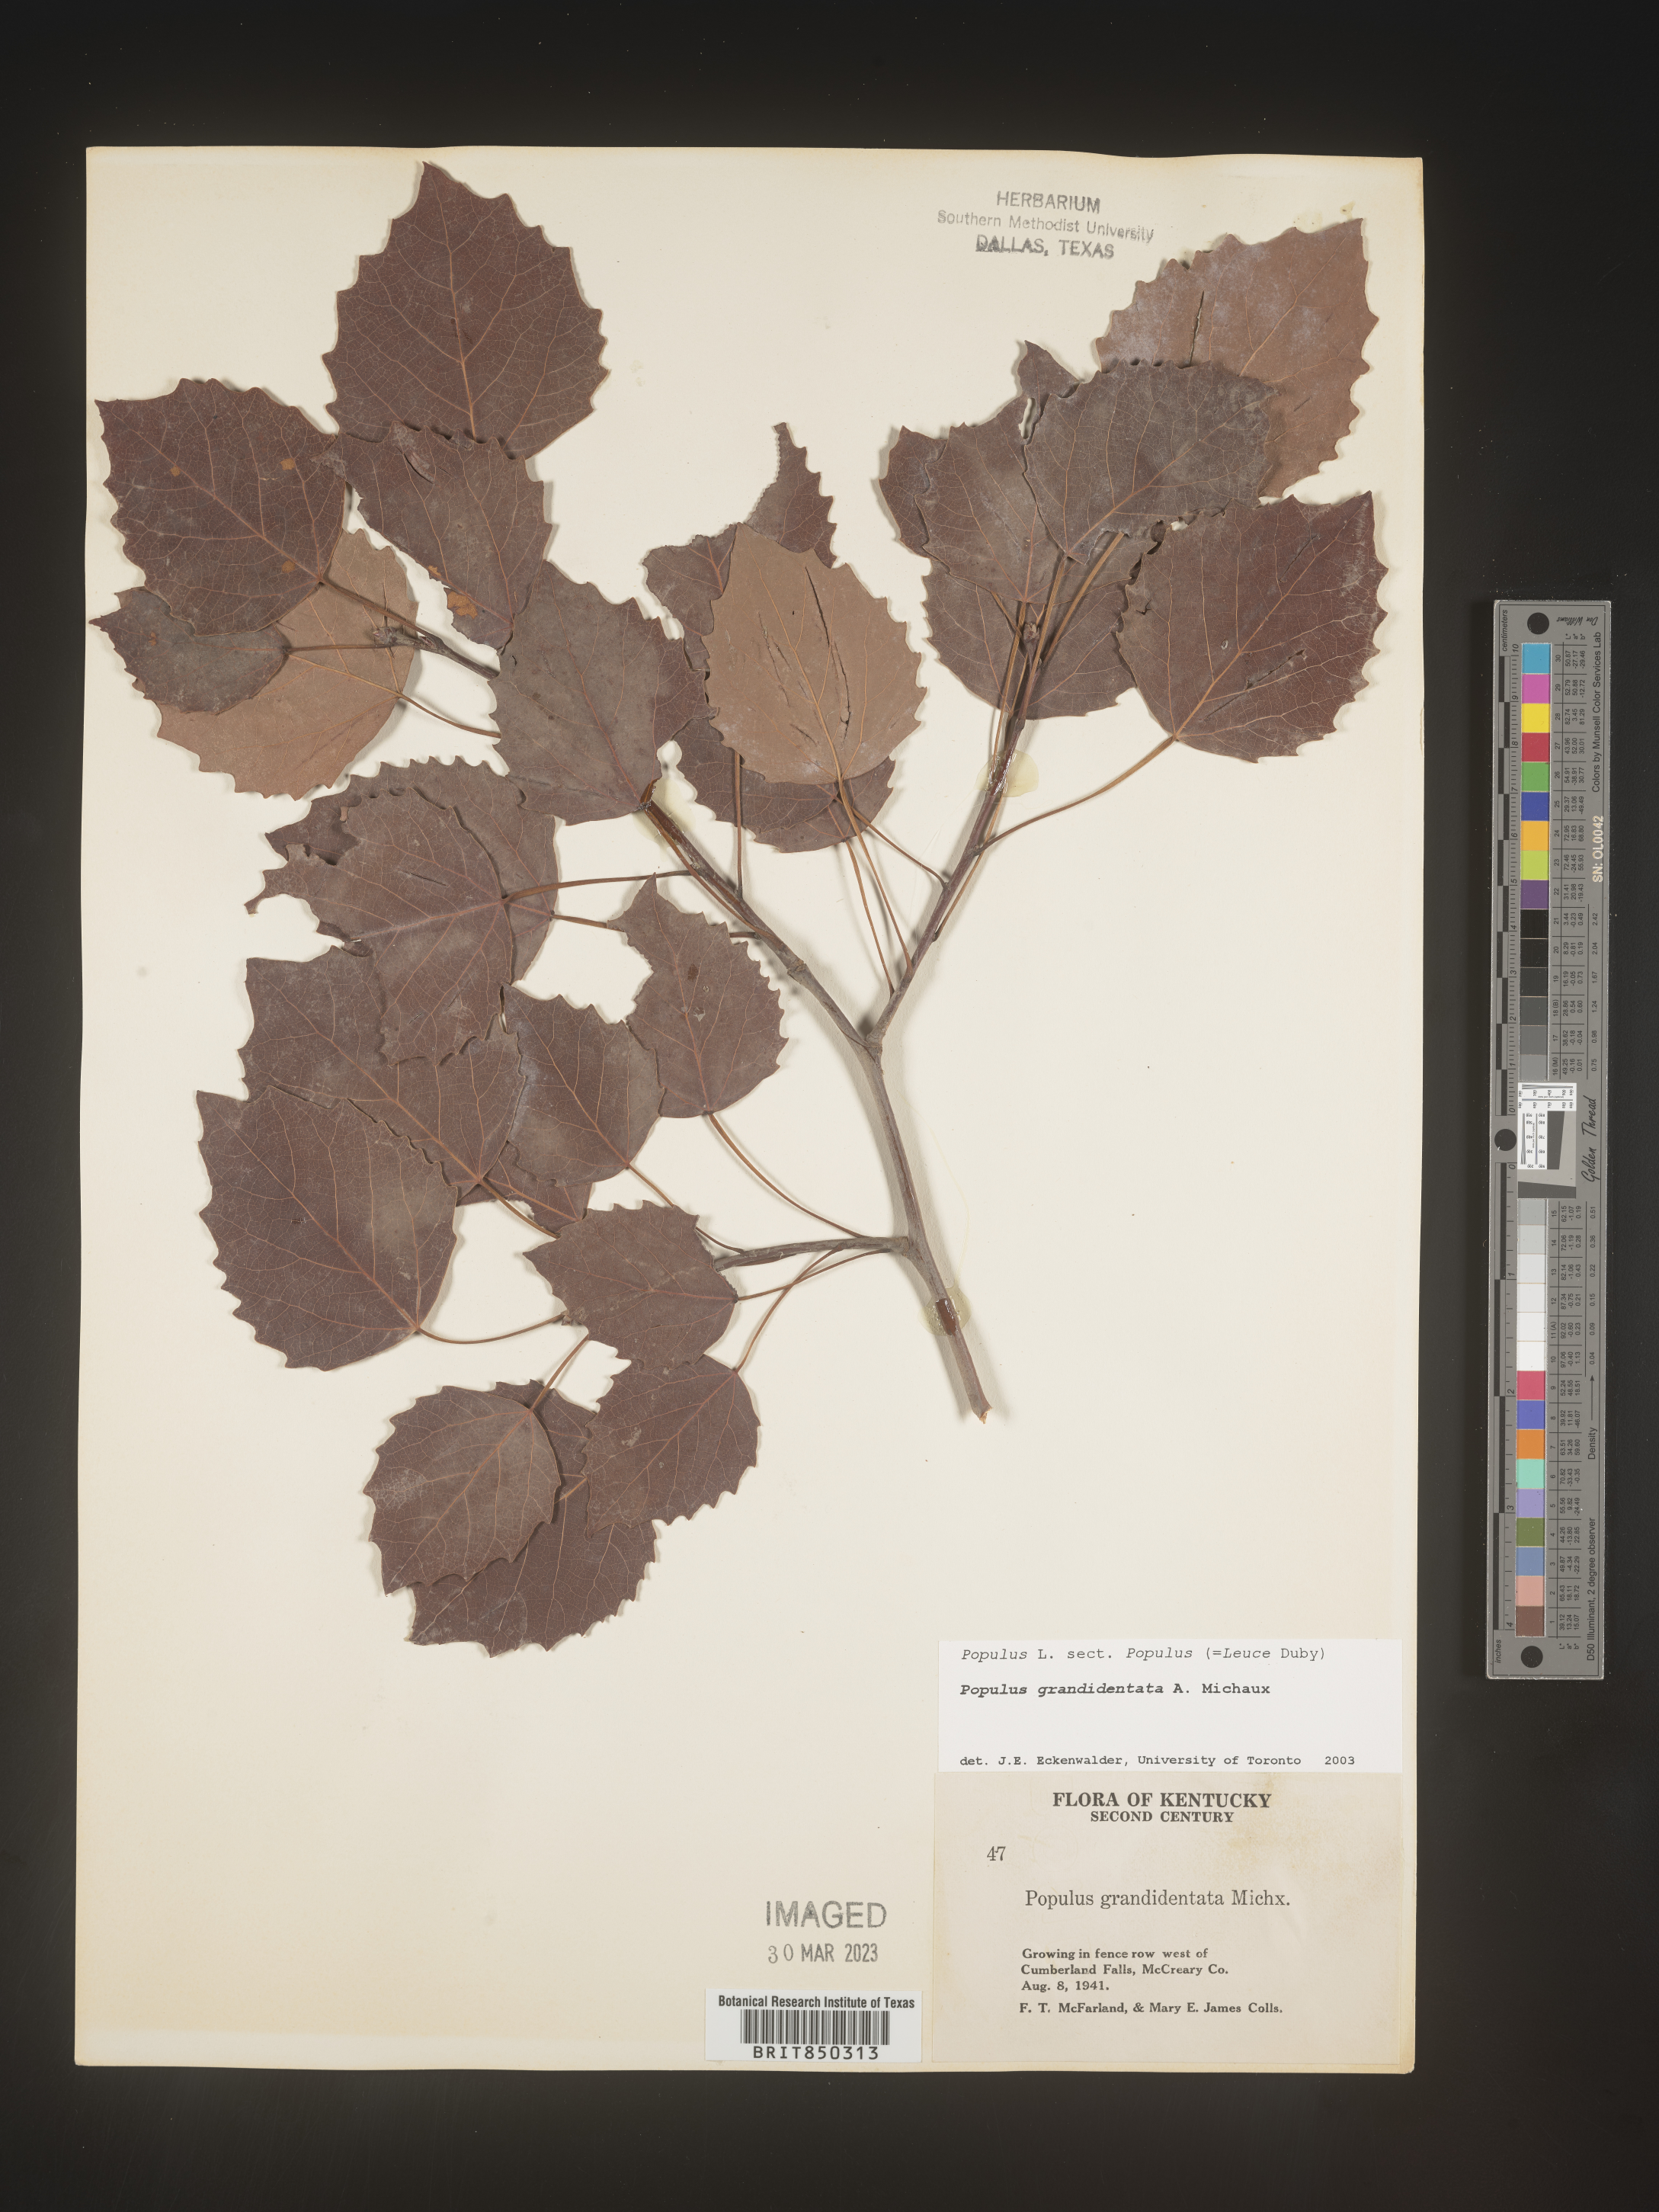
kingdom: Plantae
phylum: Tracheophyta
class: Magnoliopsida
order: Malpighiales
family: Salicaceae
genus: Populus
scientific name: Populus grandidentata
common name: Bigtooth aspen
